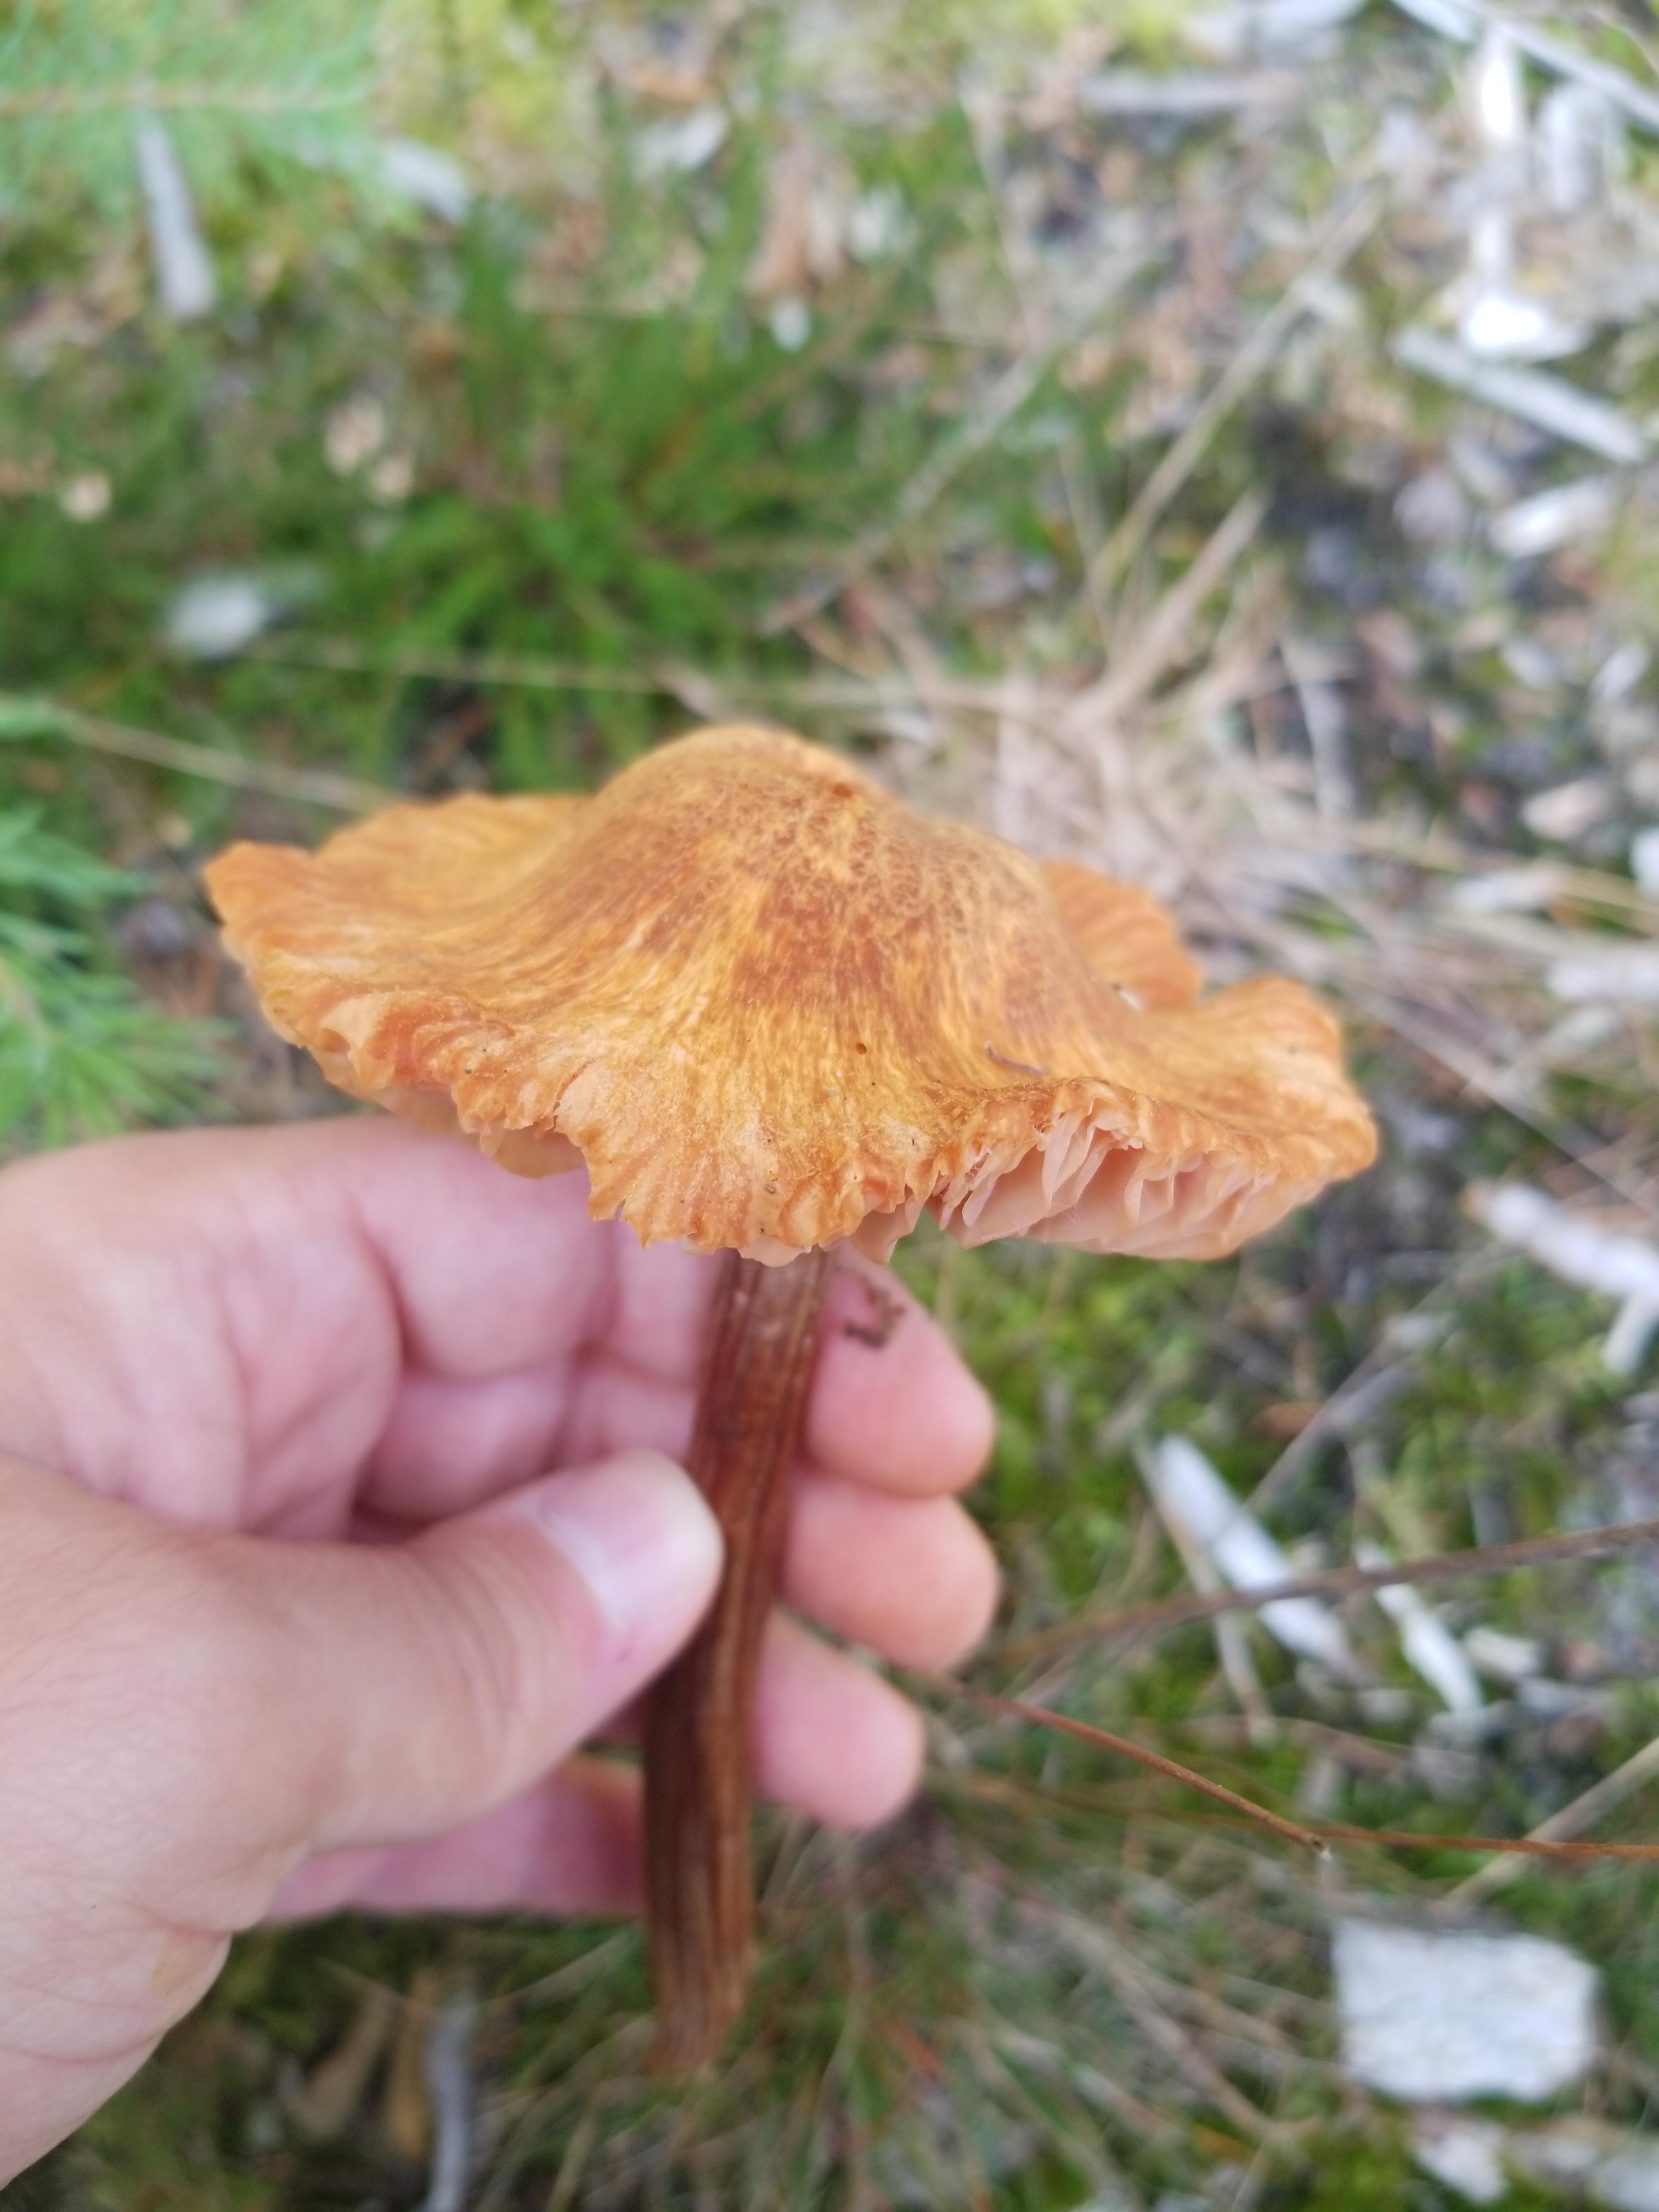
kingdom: Fungi
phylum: Basidiomycota
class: Agaricomycetes
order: Agaricales
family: Hydnangiaceae
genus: Laccaria
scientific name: Laccaria proxima
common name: stor ametysthat
